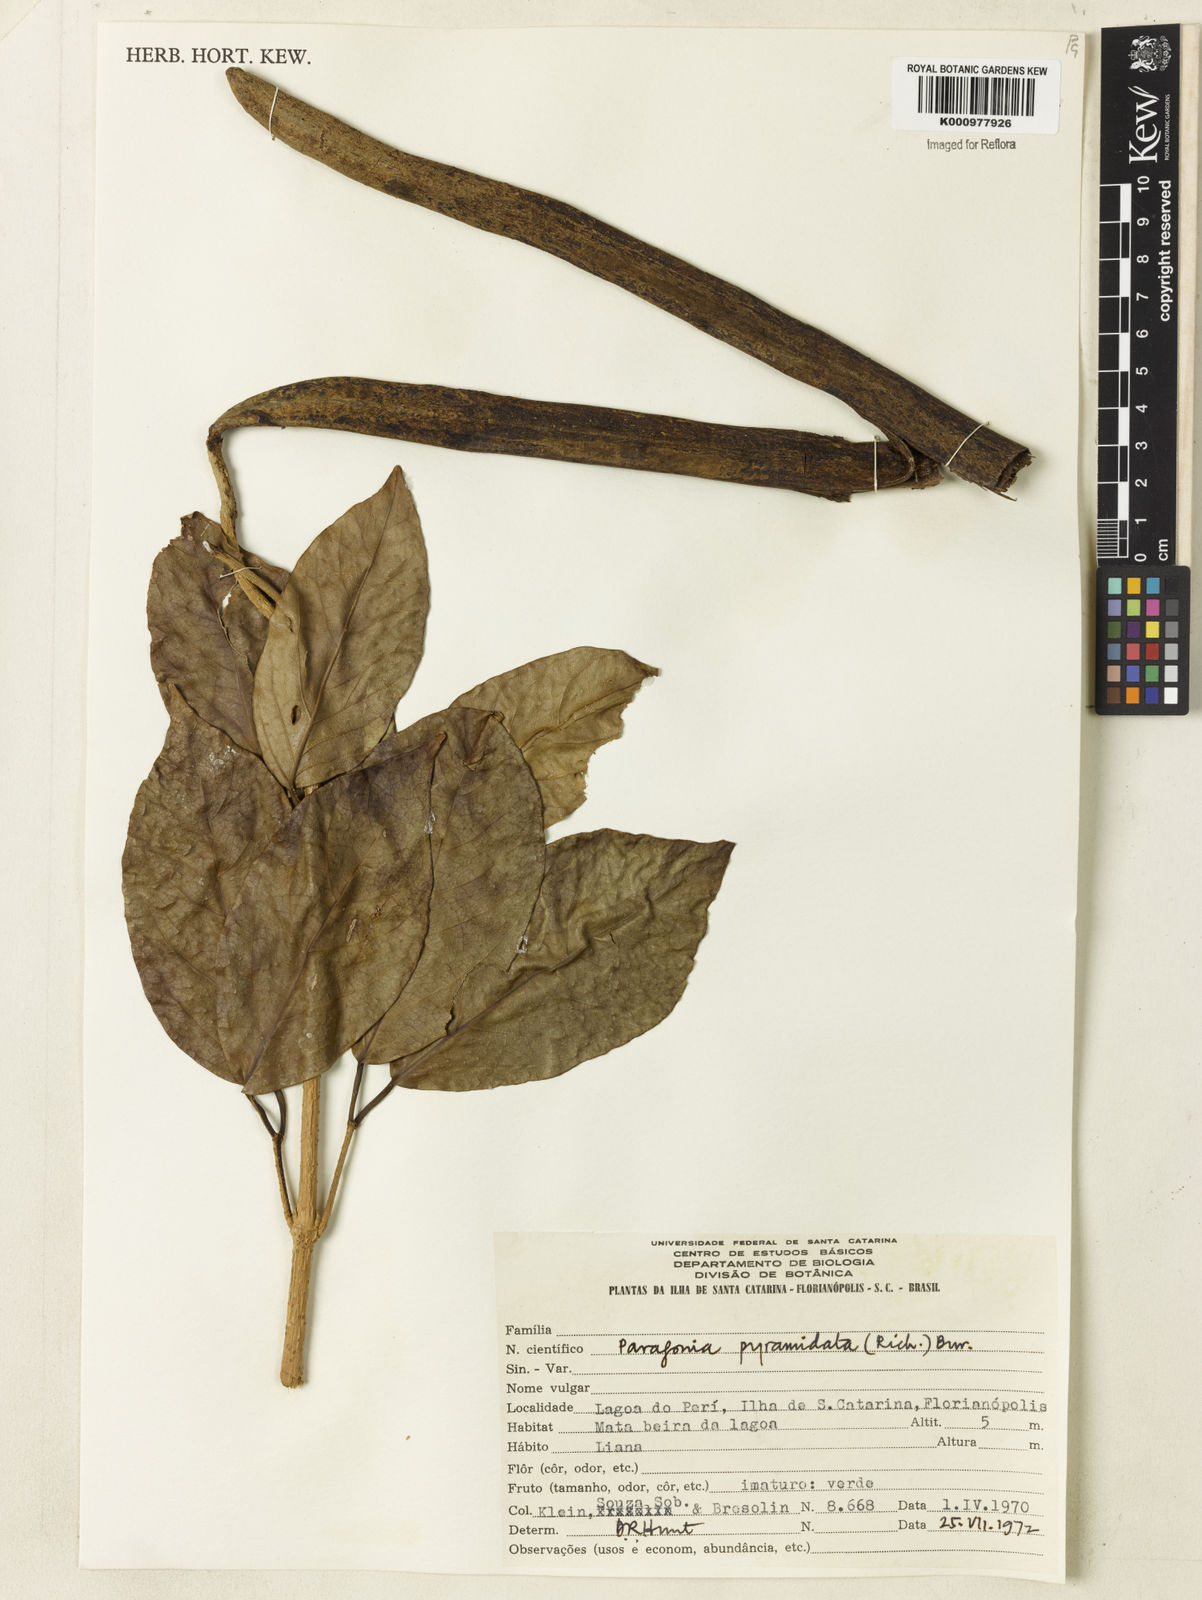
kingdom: Plantae
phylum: Tracheophyta
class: Magnoliopsida
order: Lamiales
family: Bignoniaceae
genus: Tanaecium
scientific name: Tanaecium pyramidatum
